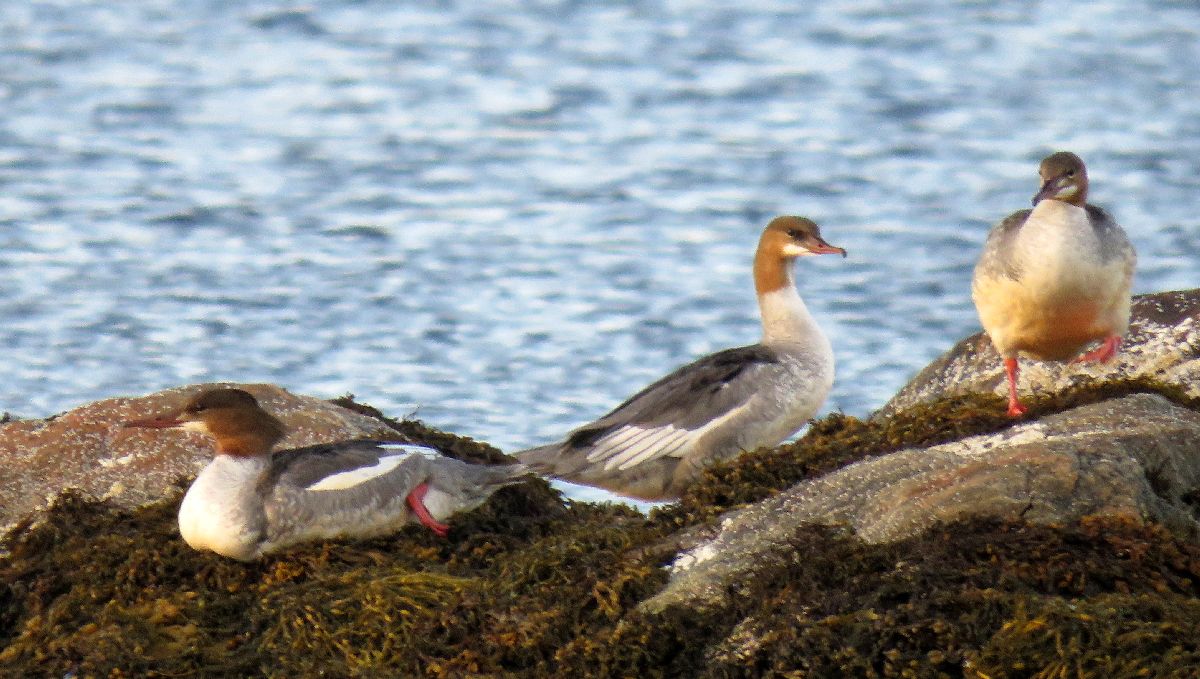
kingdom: Animalia
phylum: Chordata
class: Aves
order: Anseriformes
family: Anatidae
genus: Mergus
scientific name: Mergus merganser
